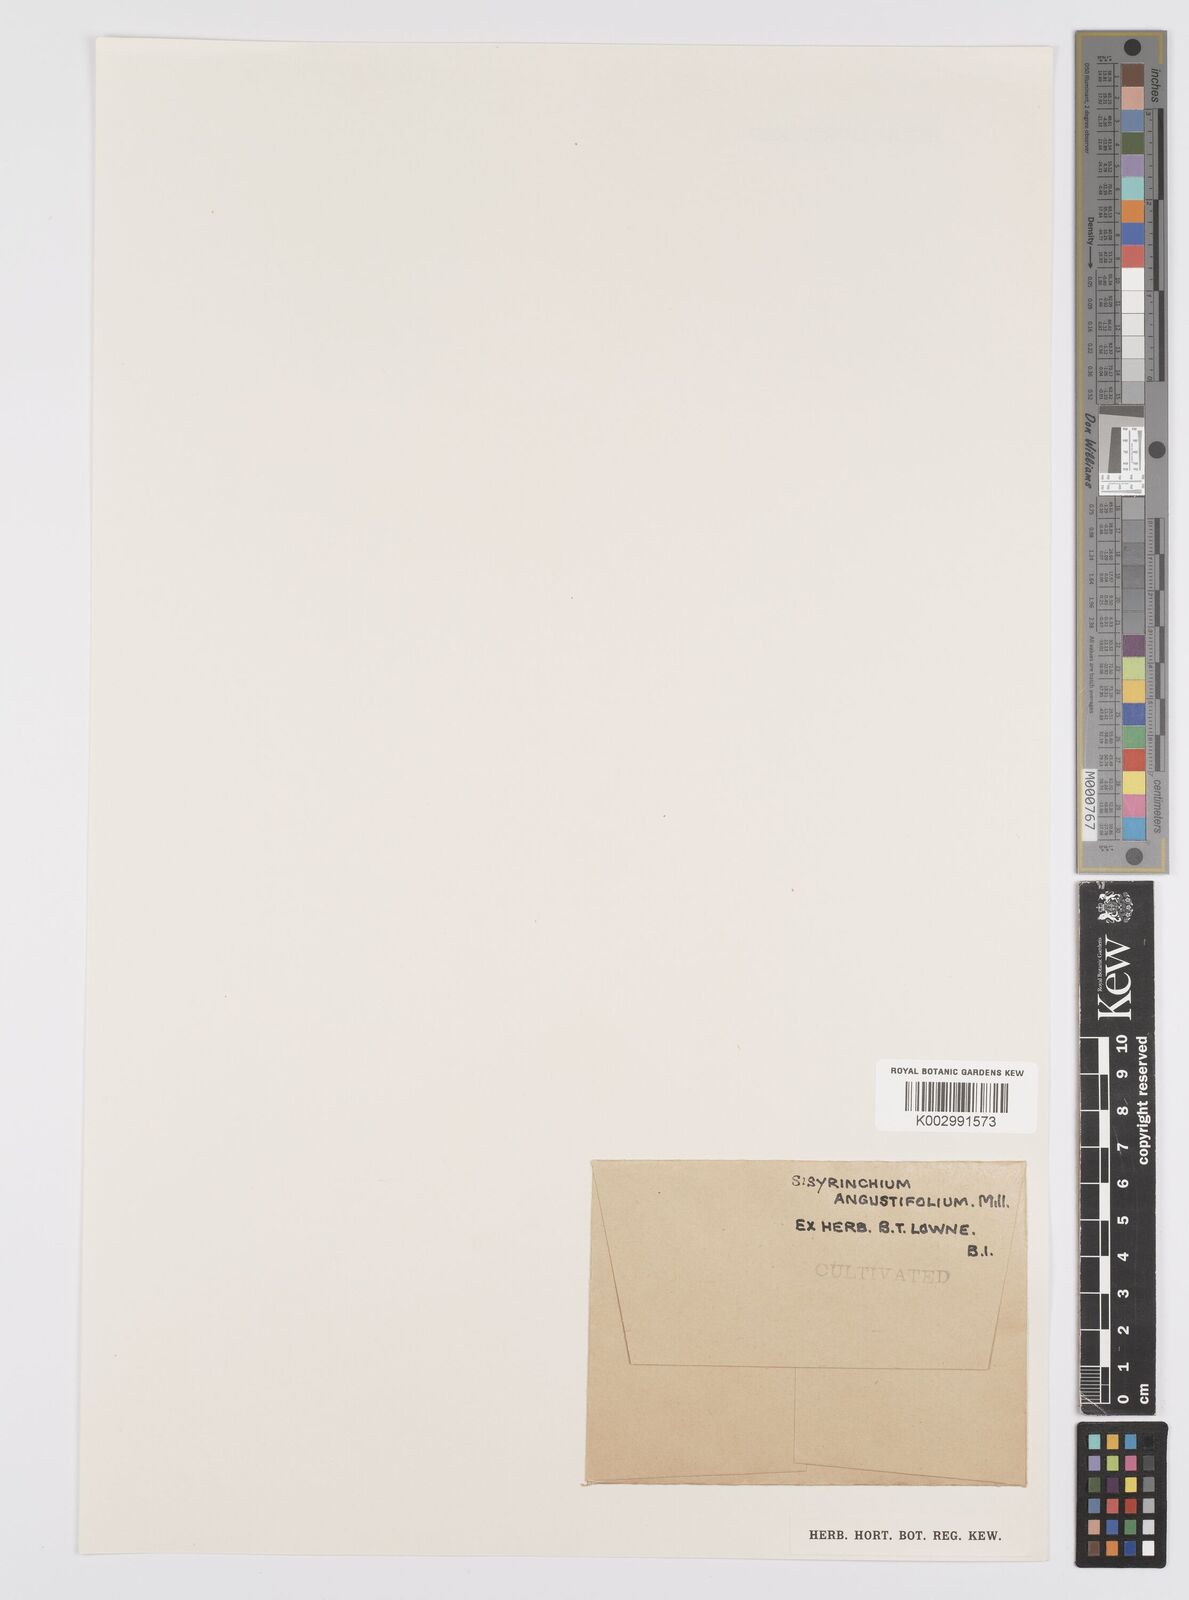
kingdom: Plantae
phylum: Tracheophyta
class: Liliopsida
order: Asparagales
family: Iridaceae
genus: Sisyrinchium
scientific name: Sisyrinchium angustifolium
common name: Narrow-leaf blue-eyed-grass
